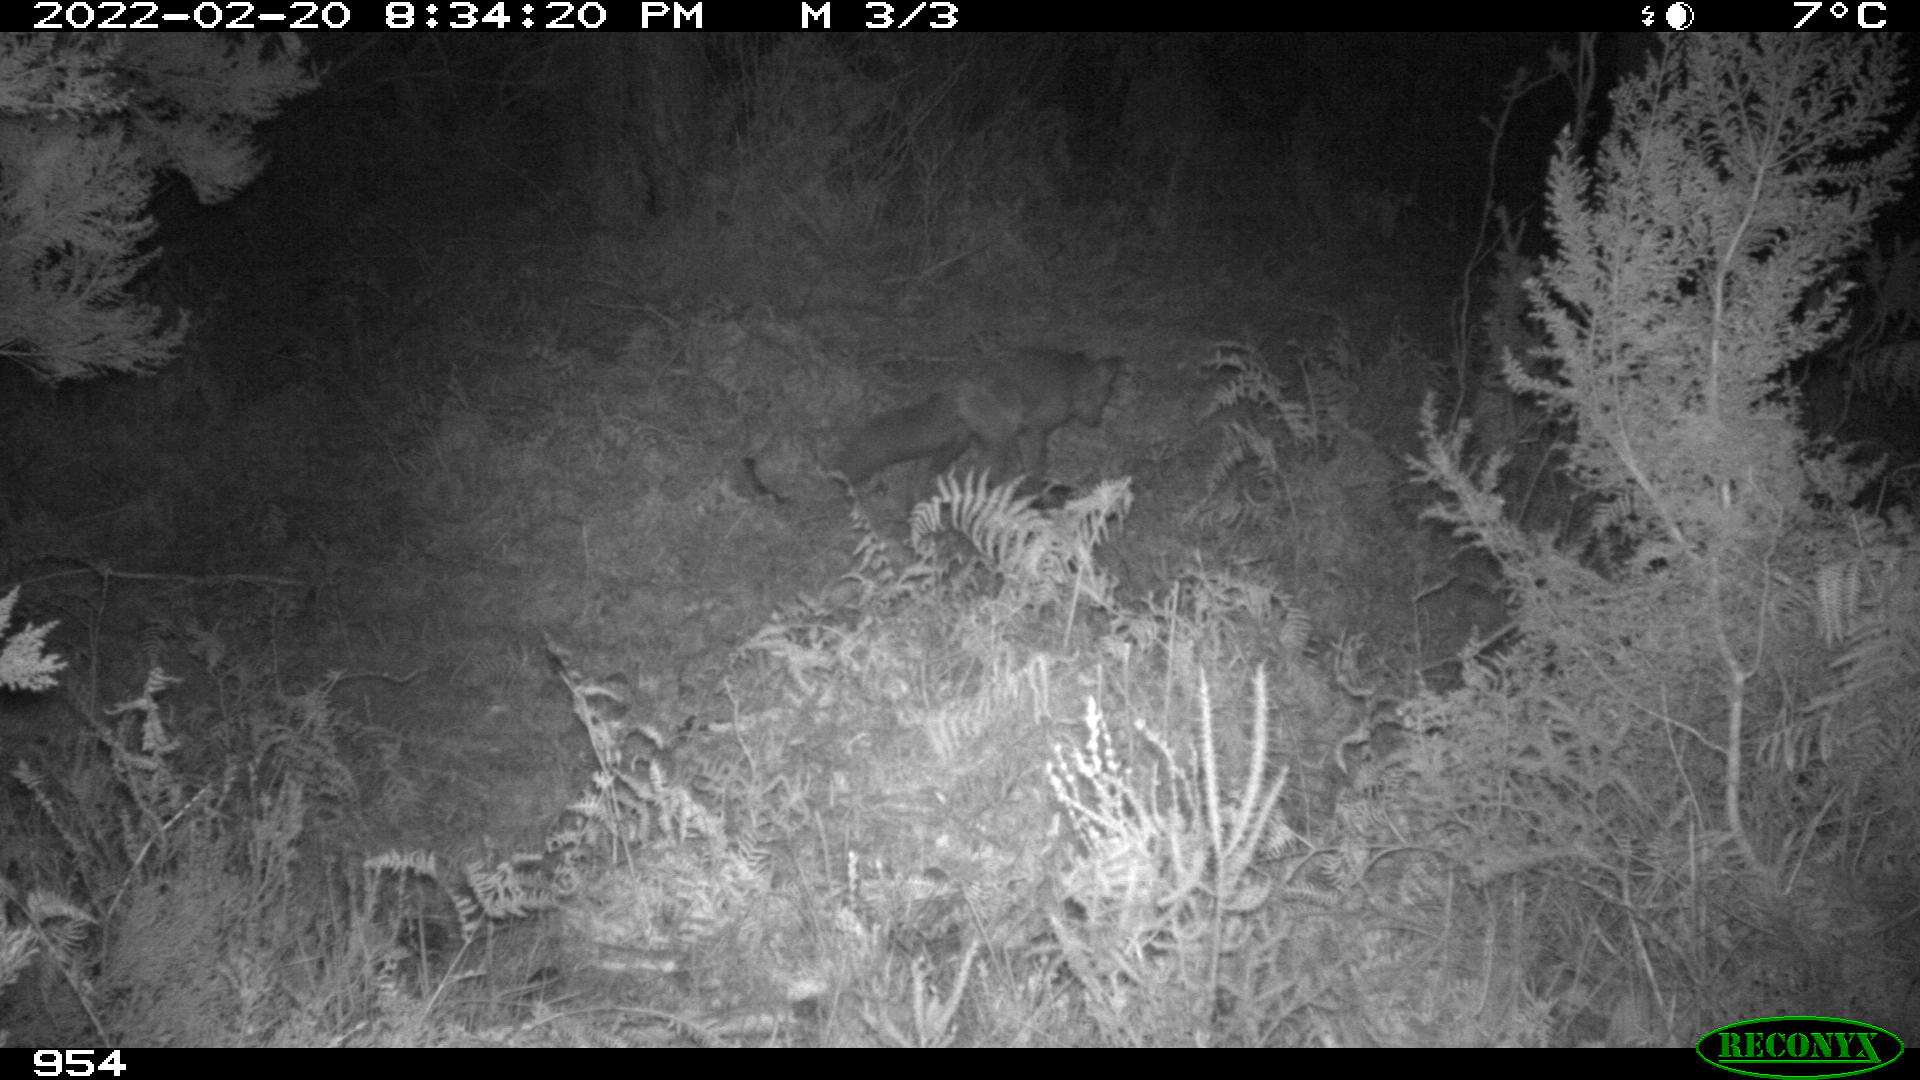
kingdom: Animalia
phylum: Chordata
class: Mammalia
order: Carnivora
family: Canidae
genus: Vulpes
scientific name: Vulpes vulpes
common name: Red fox
